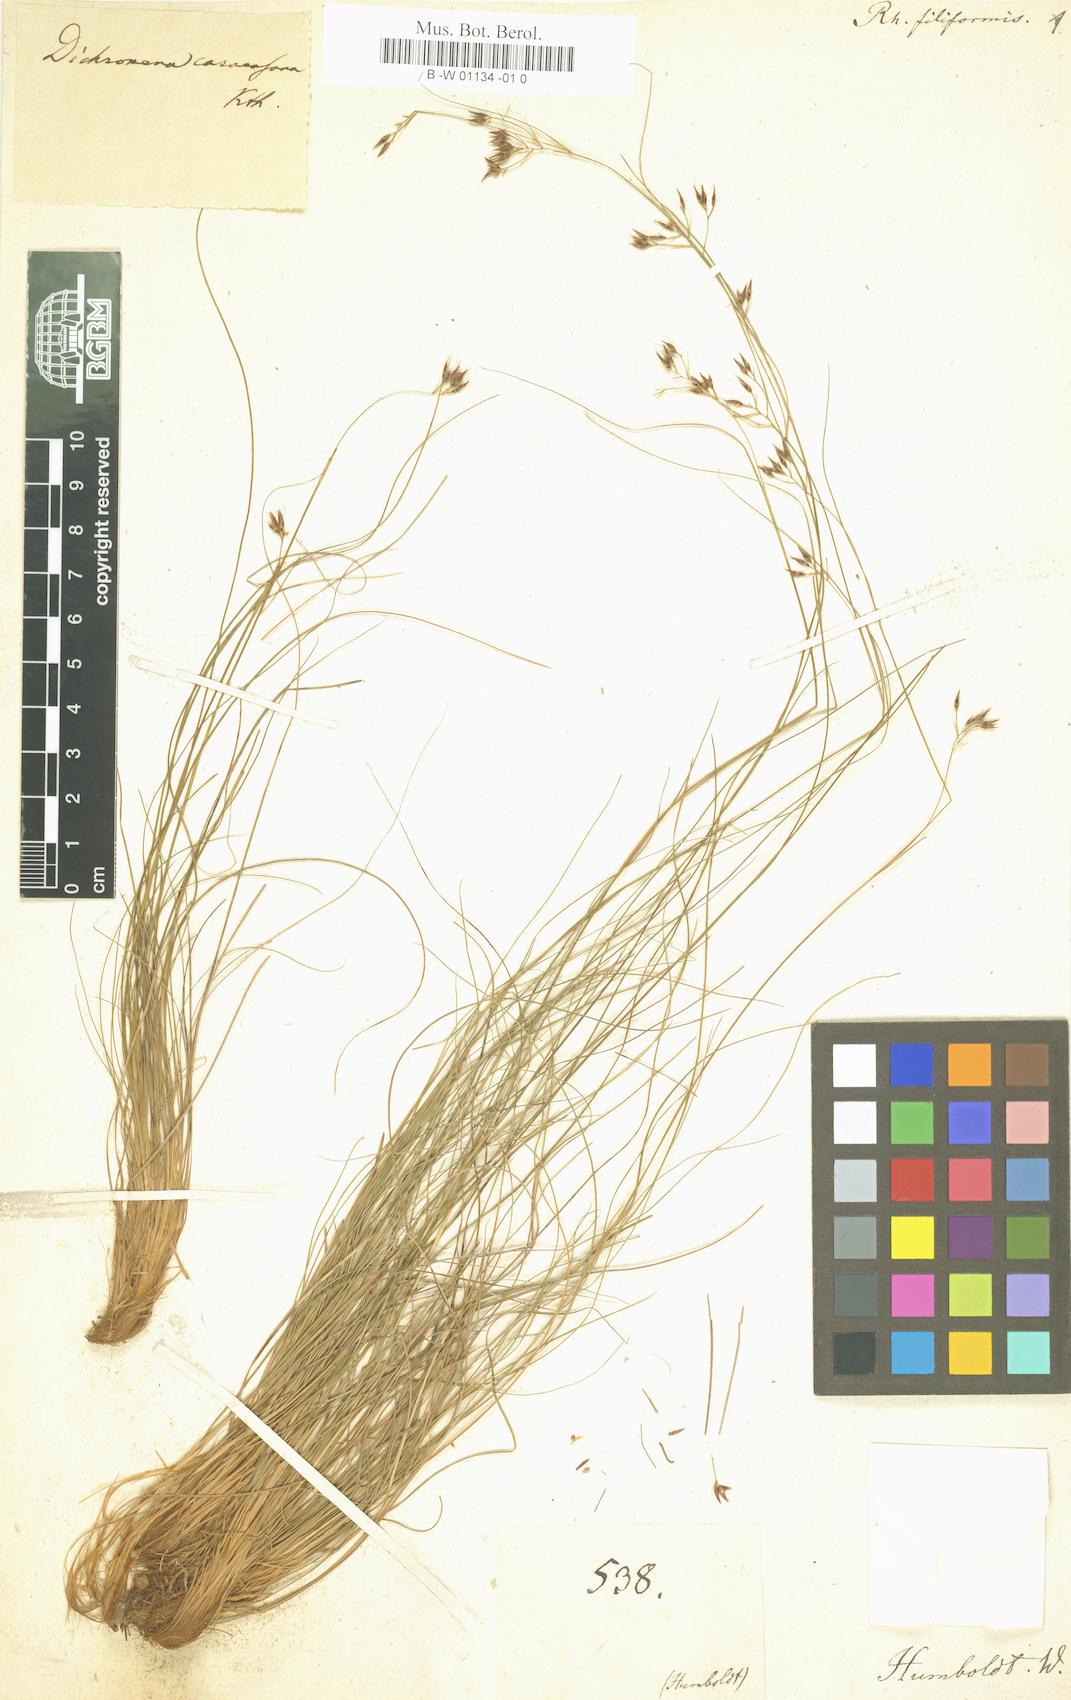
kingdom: Plantae
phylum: Tracheophyta
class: Liliopsida
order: Poales
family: Cyperaceae
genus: Rhynchospora
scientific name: Rhynchospora caracasana
